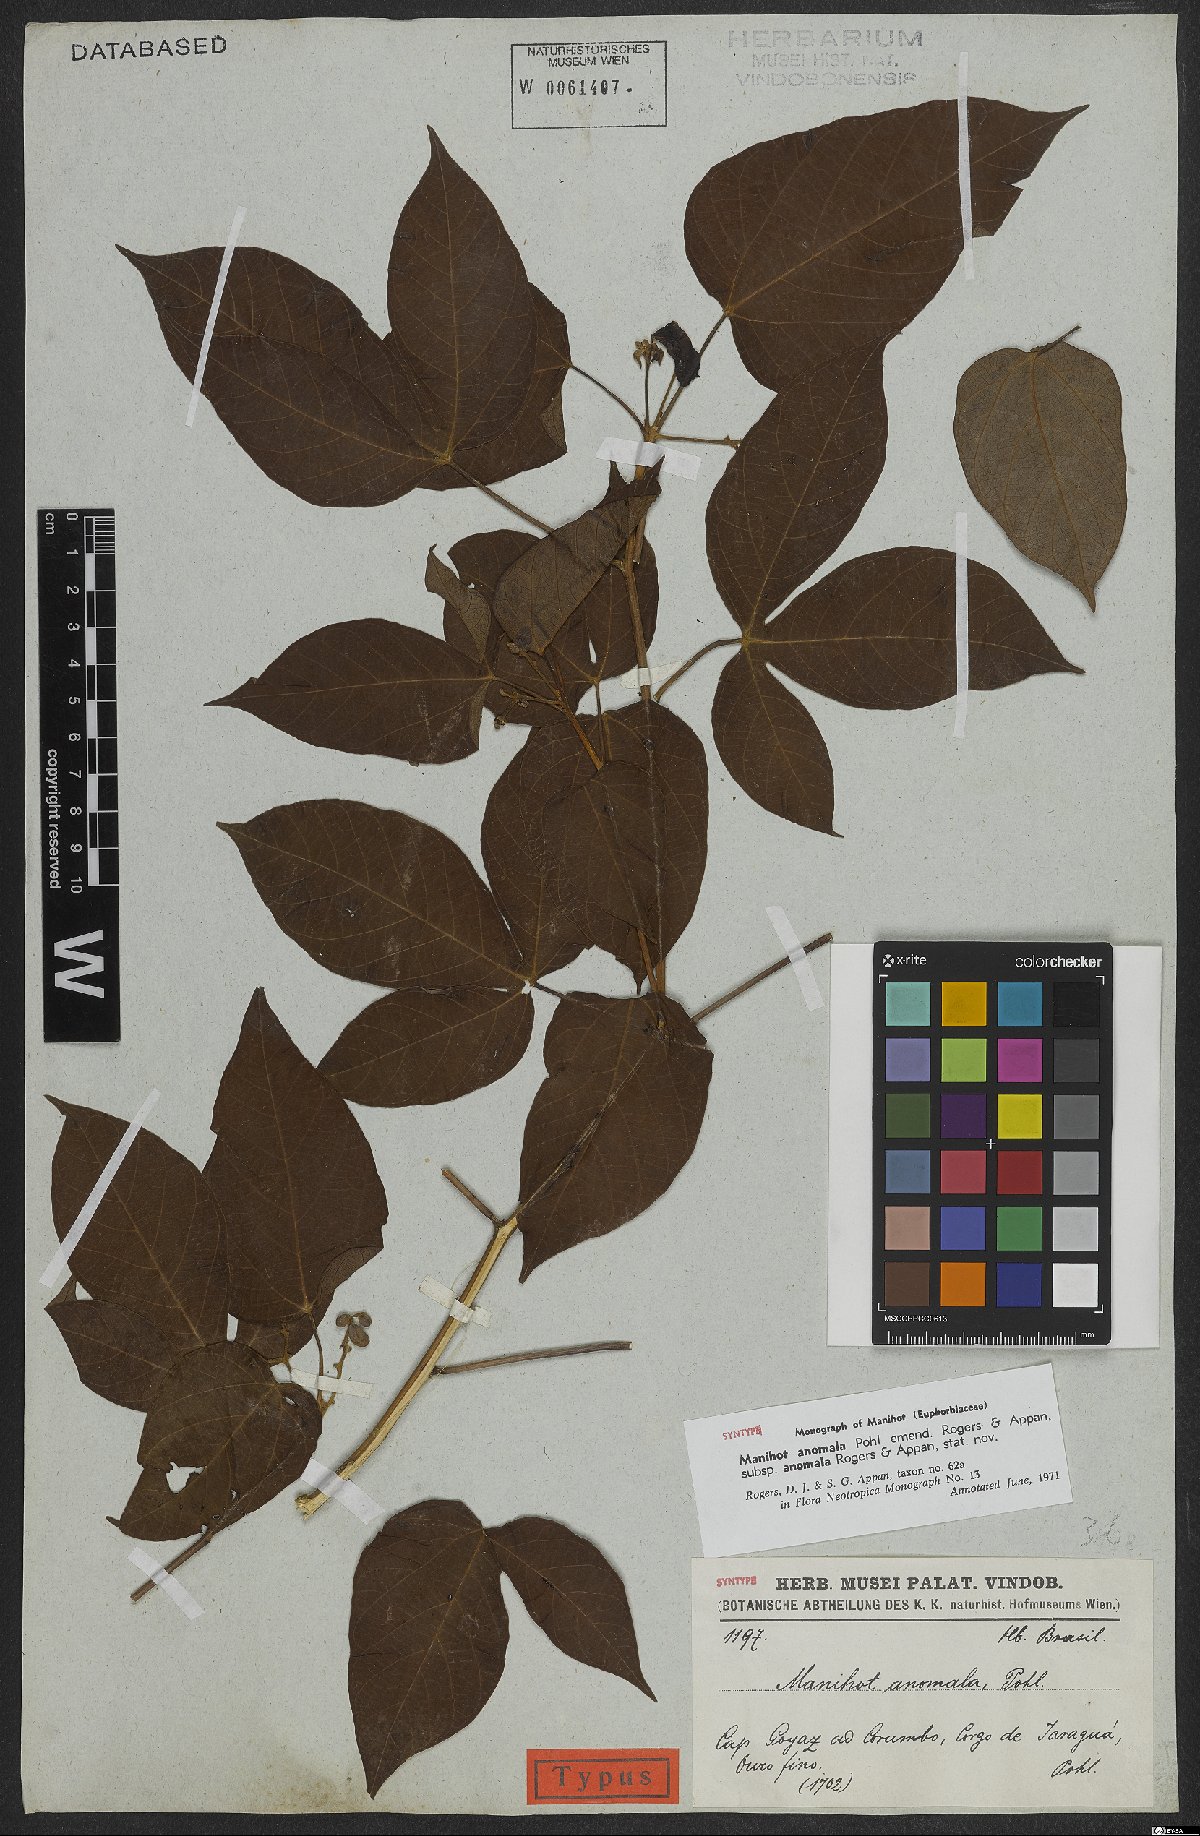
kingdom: Plantae
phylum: Tracheophyta
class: Magnoliopsida
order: Malpighiales
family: Euphorbiaceae
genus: Manihot
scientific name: Manihot anomala
